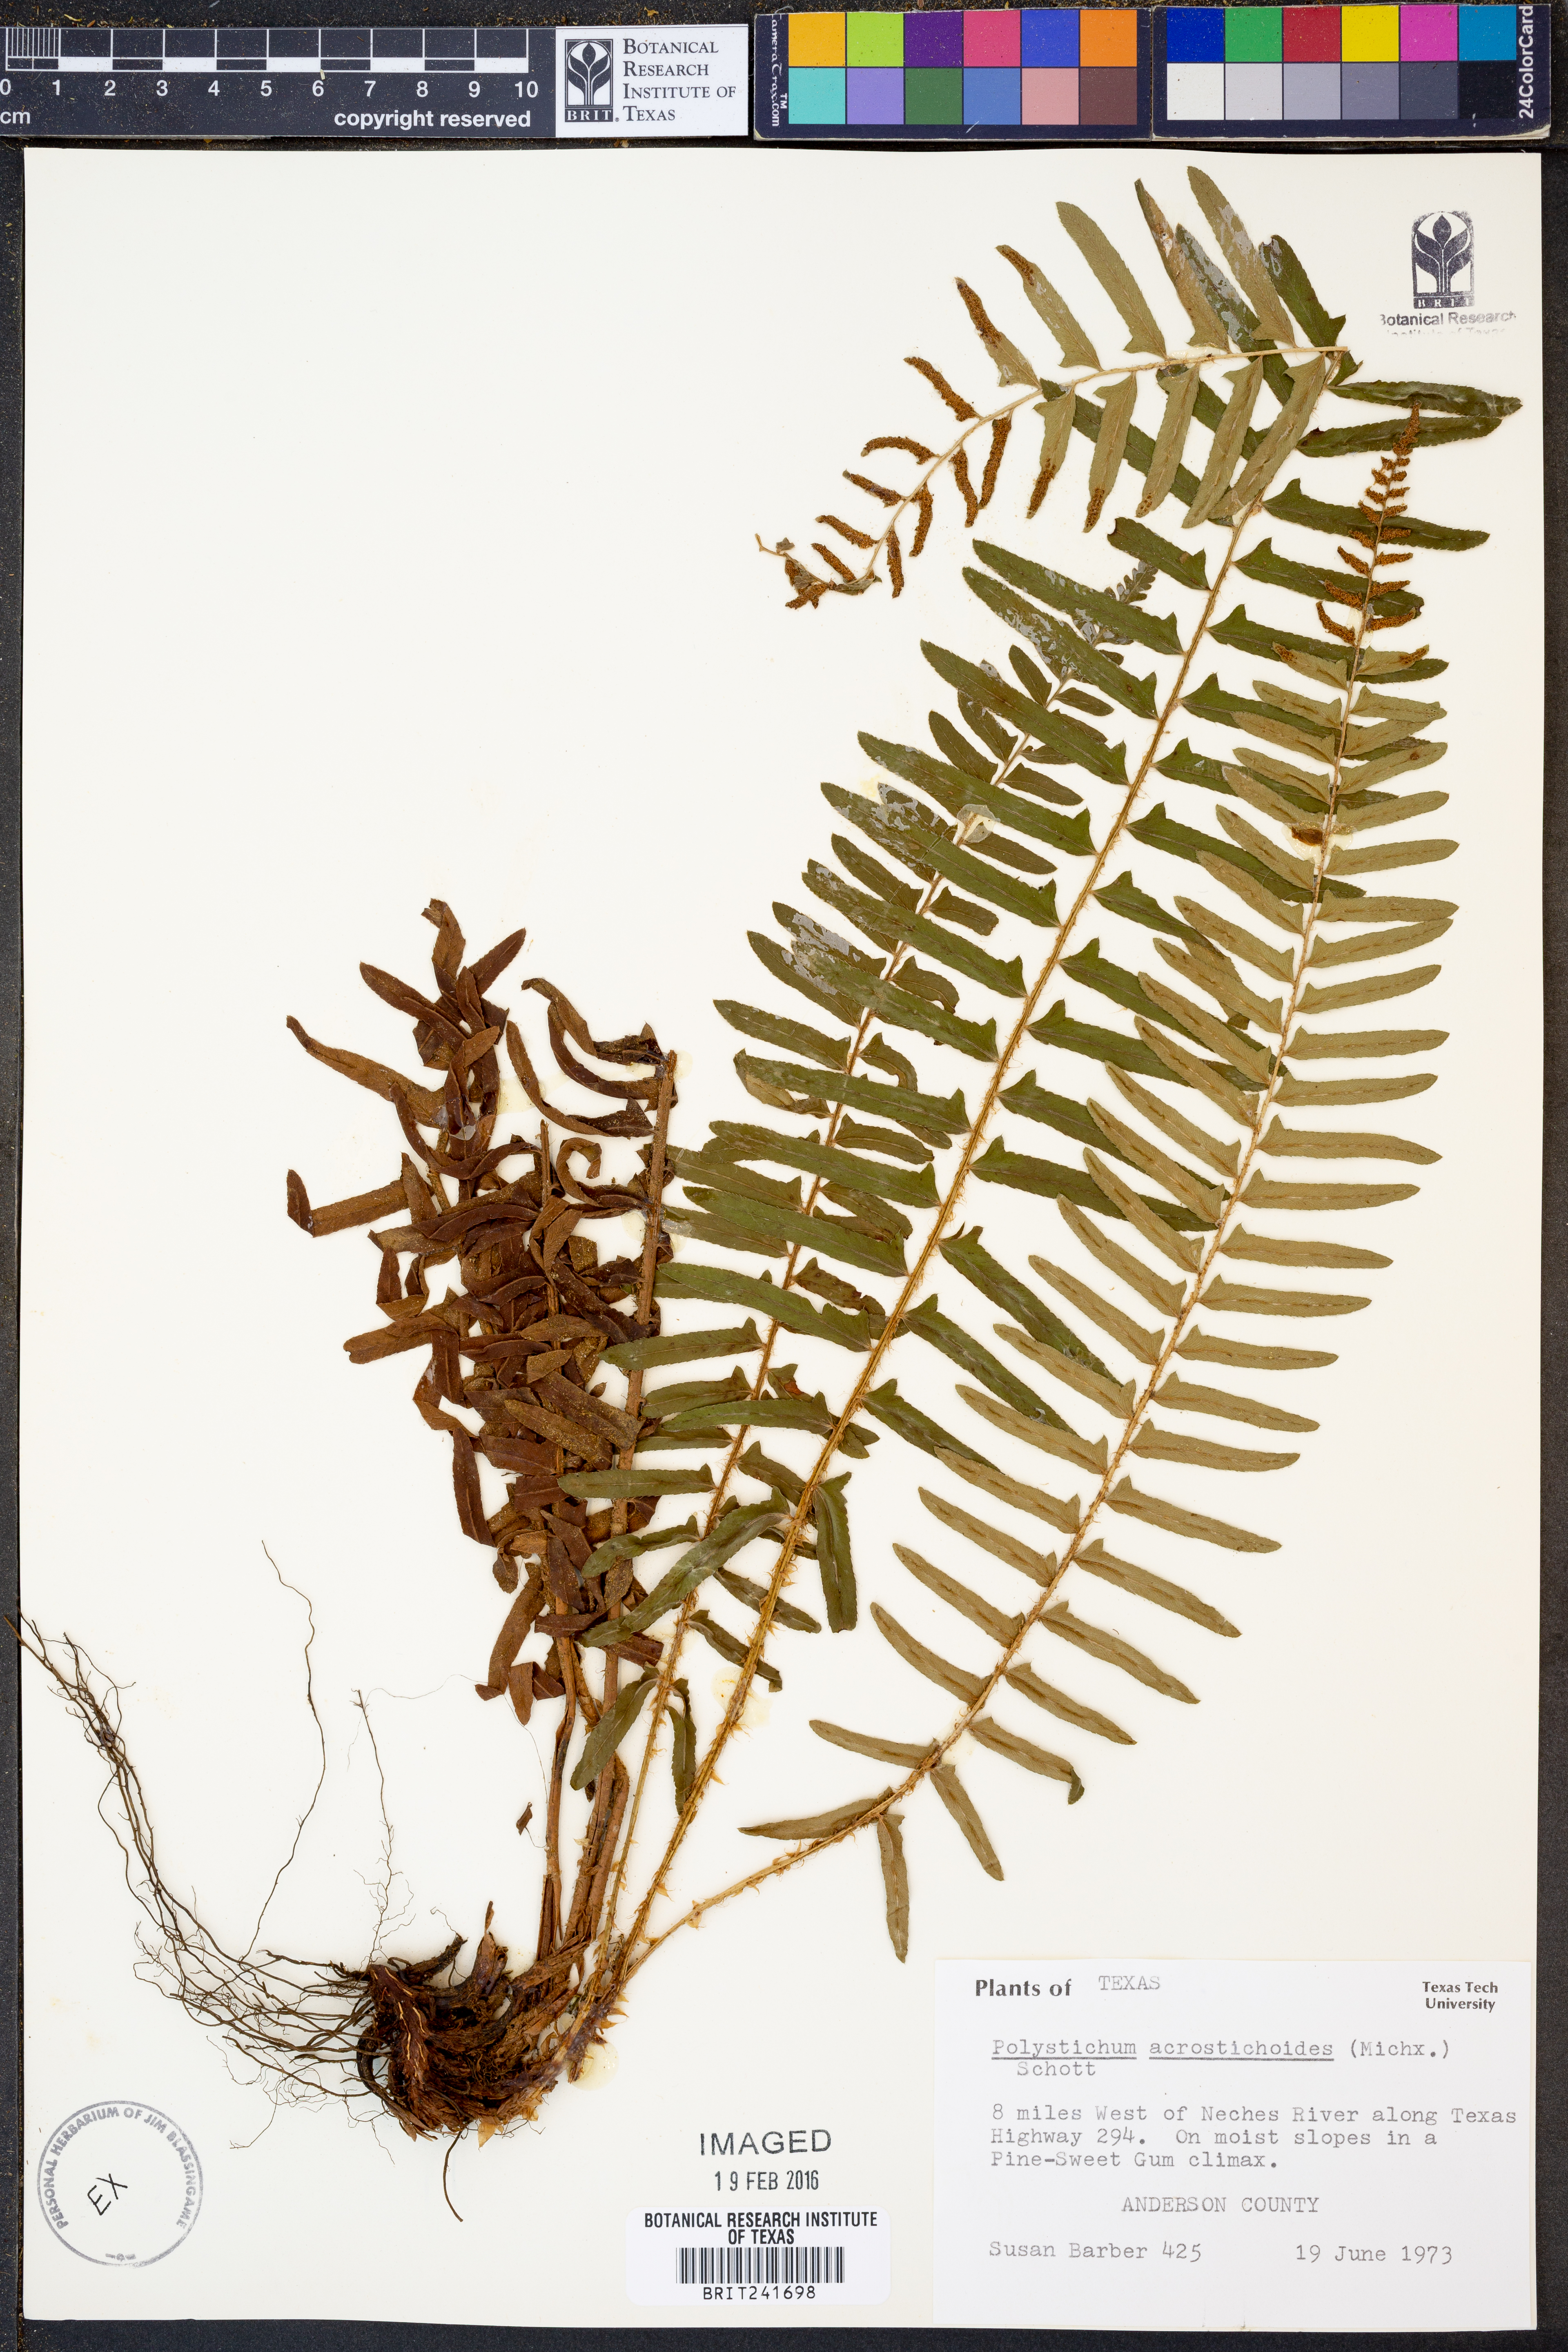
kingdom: Plantae
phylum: Tracheophyta
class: Polypodiopsida
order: Polypodiales
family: Dryopteridaceae
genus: Polystichum
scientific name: Polystichum acrostichoides
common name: Christmas fern
